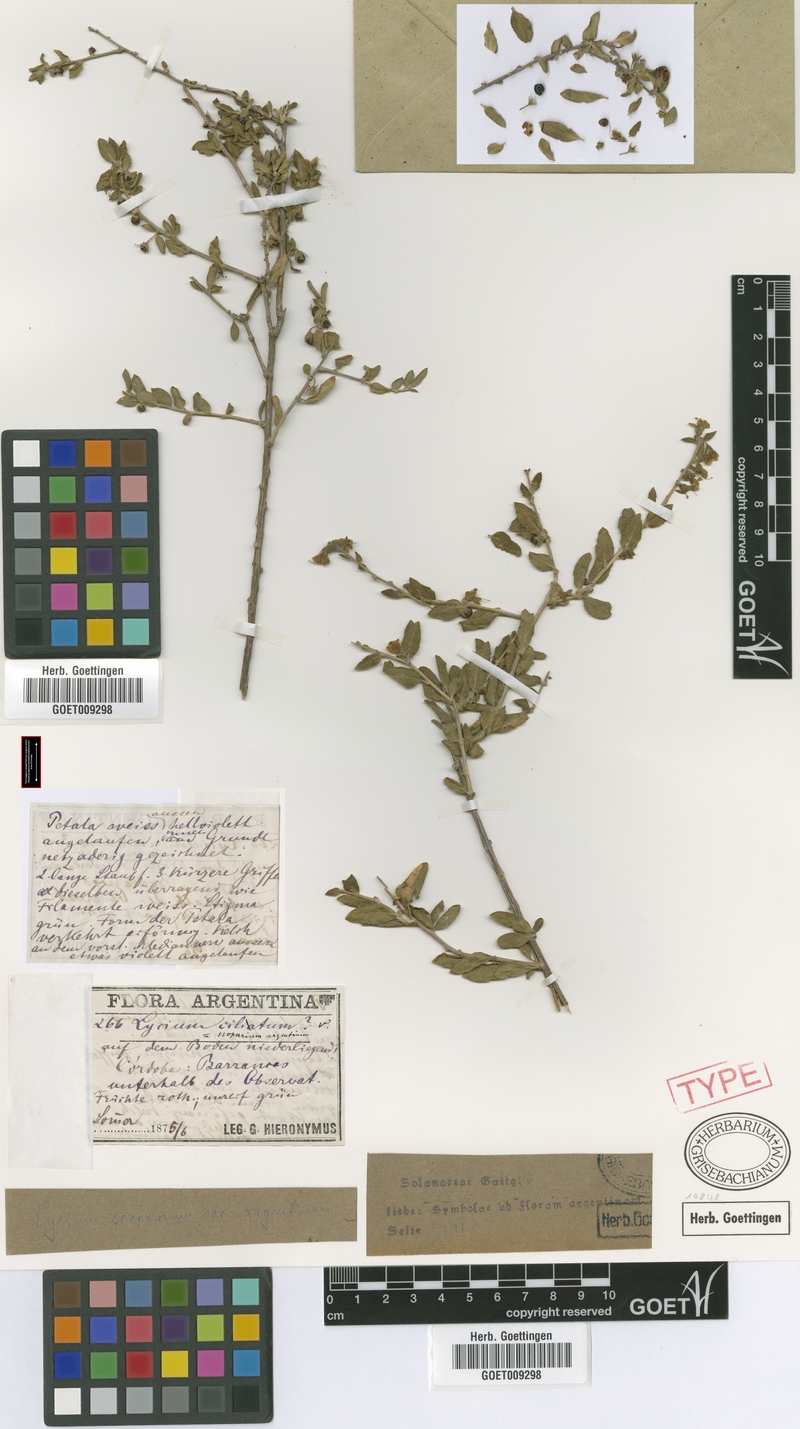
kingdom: Plantae
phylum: Tracheophyta
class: Magnoliopsida
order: Solanales
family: Solanaceae
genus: Lycium
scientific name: Lycium ciliatum
